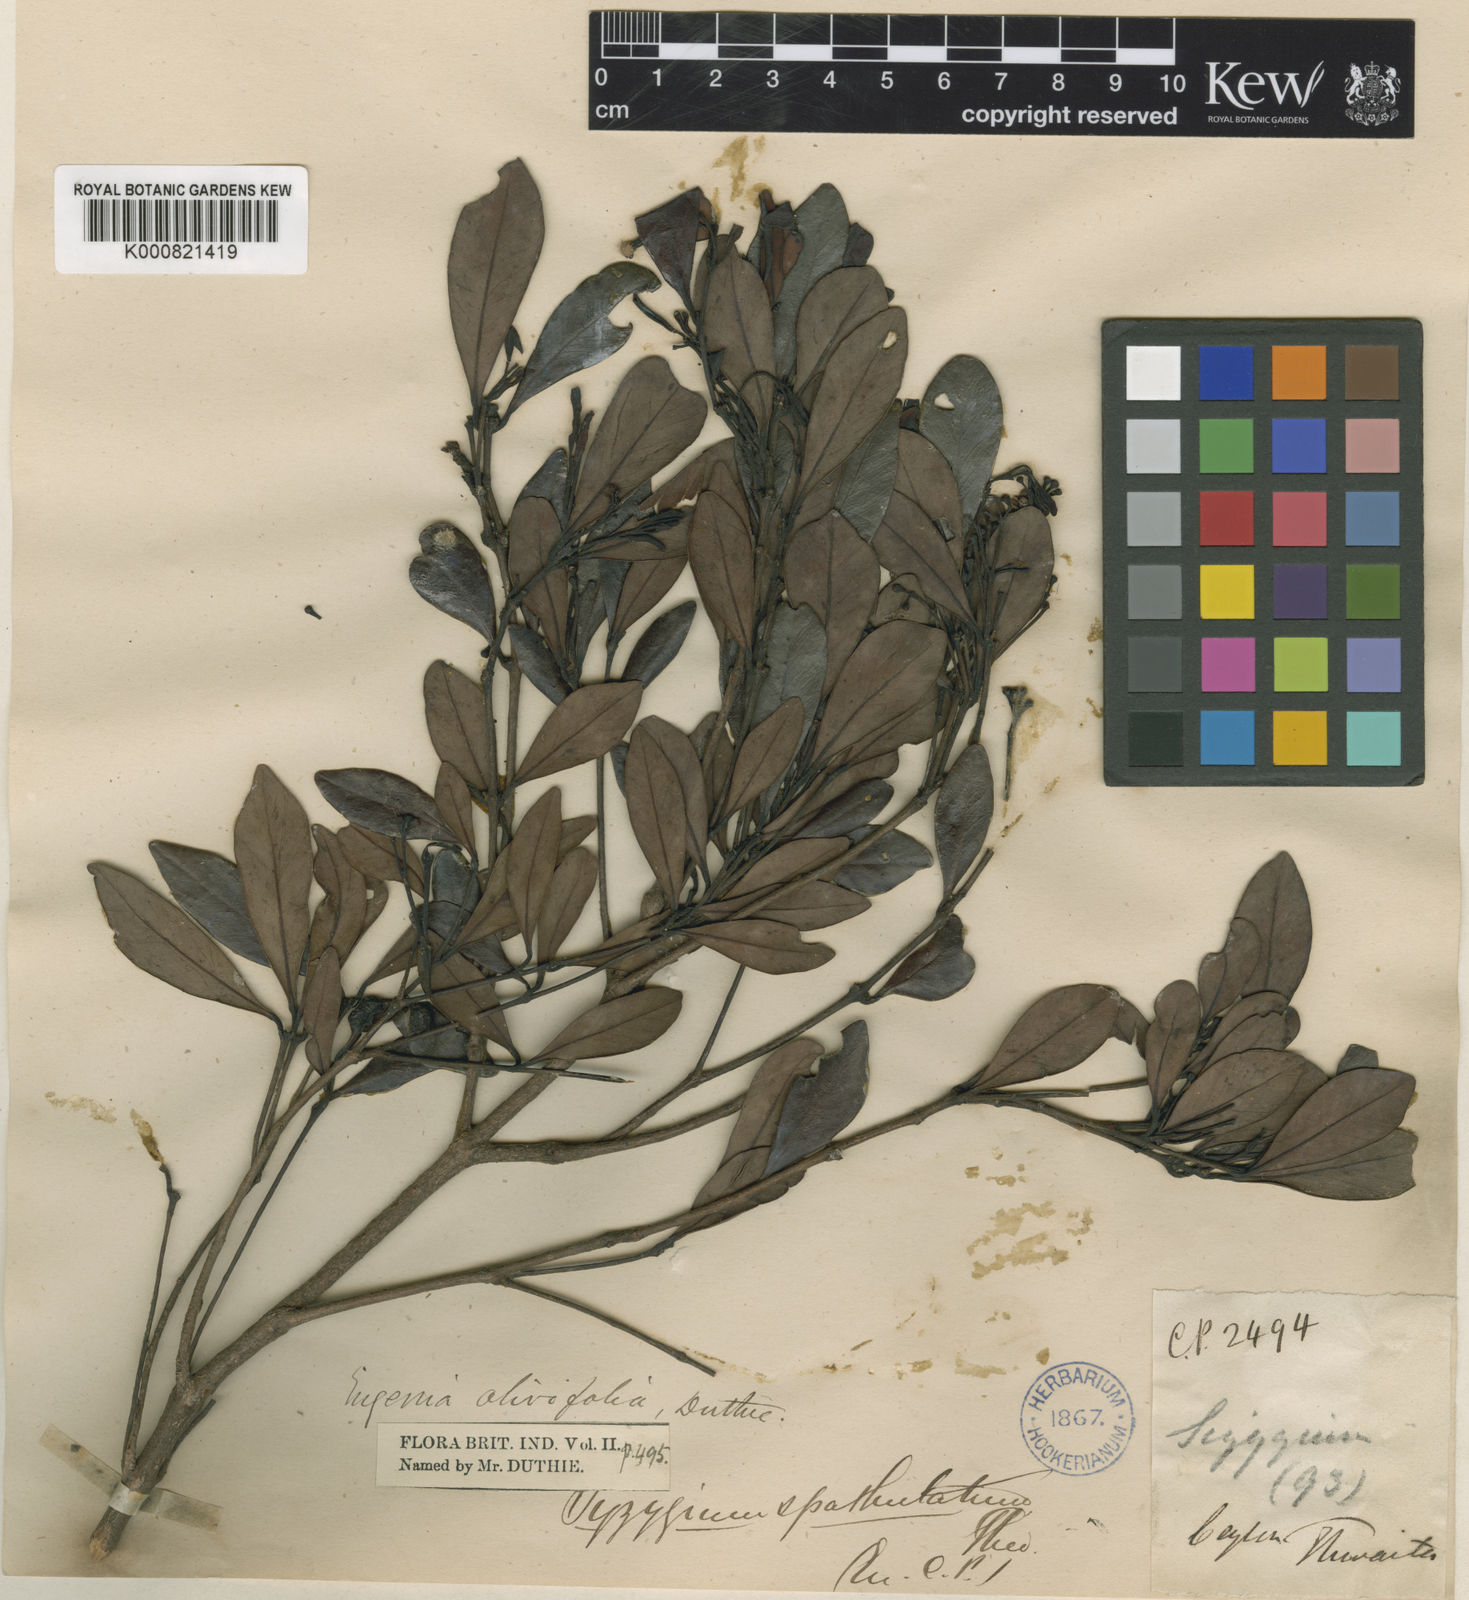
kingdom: Plantae
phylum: Tracheophyta
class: Magnoliopsida
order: Myrtales
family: Myrtaceae
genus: Syzygium
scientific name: Syzygium spathulatum
